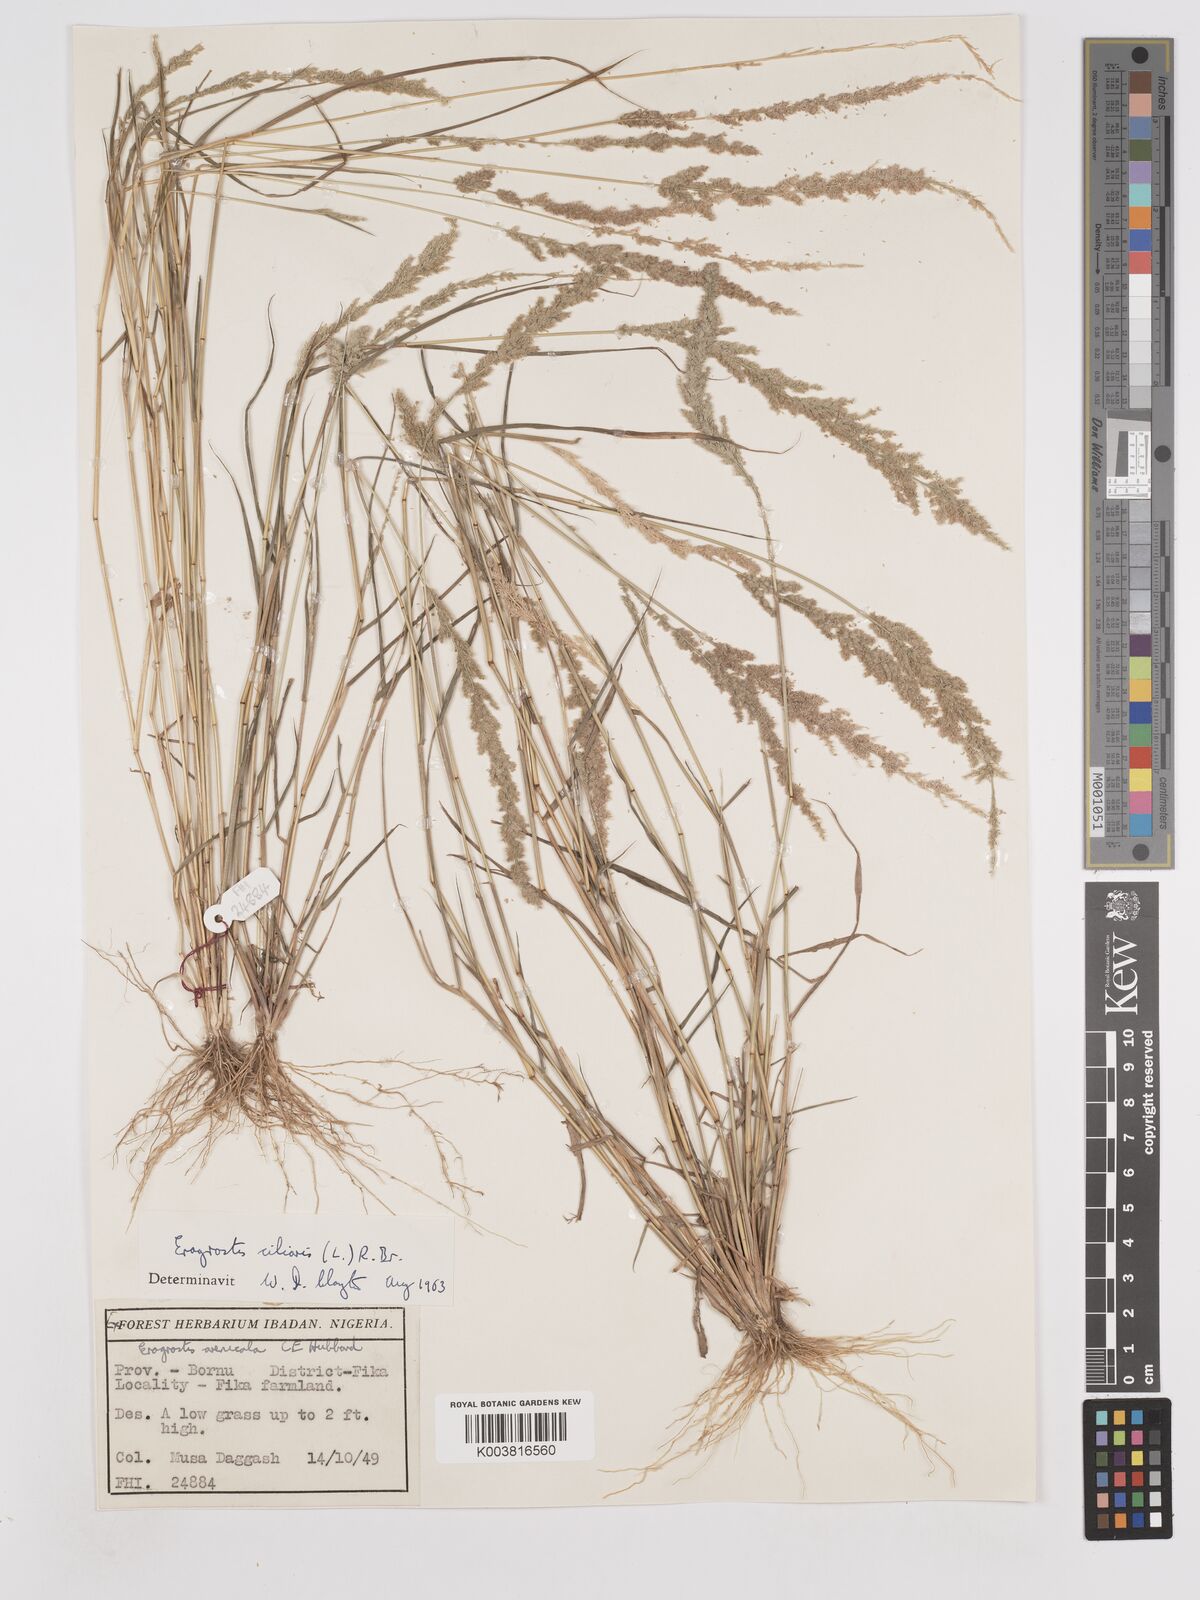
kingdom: Plantae
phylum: Tracheophyta
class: Liliopsida
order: Poales
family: Poaceae
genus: Eragrostis
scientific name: Eragrostis ciliaris
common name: Gophertail lovegrass
